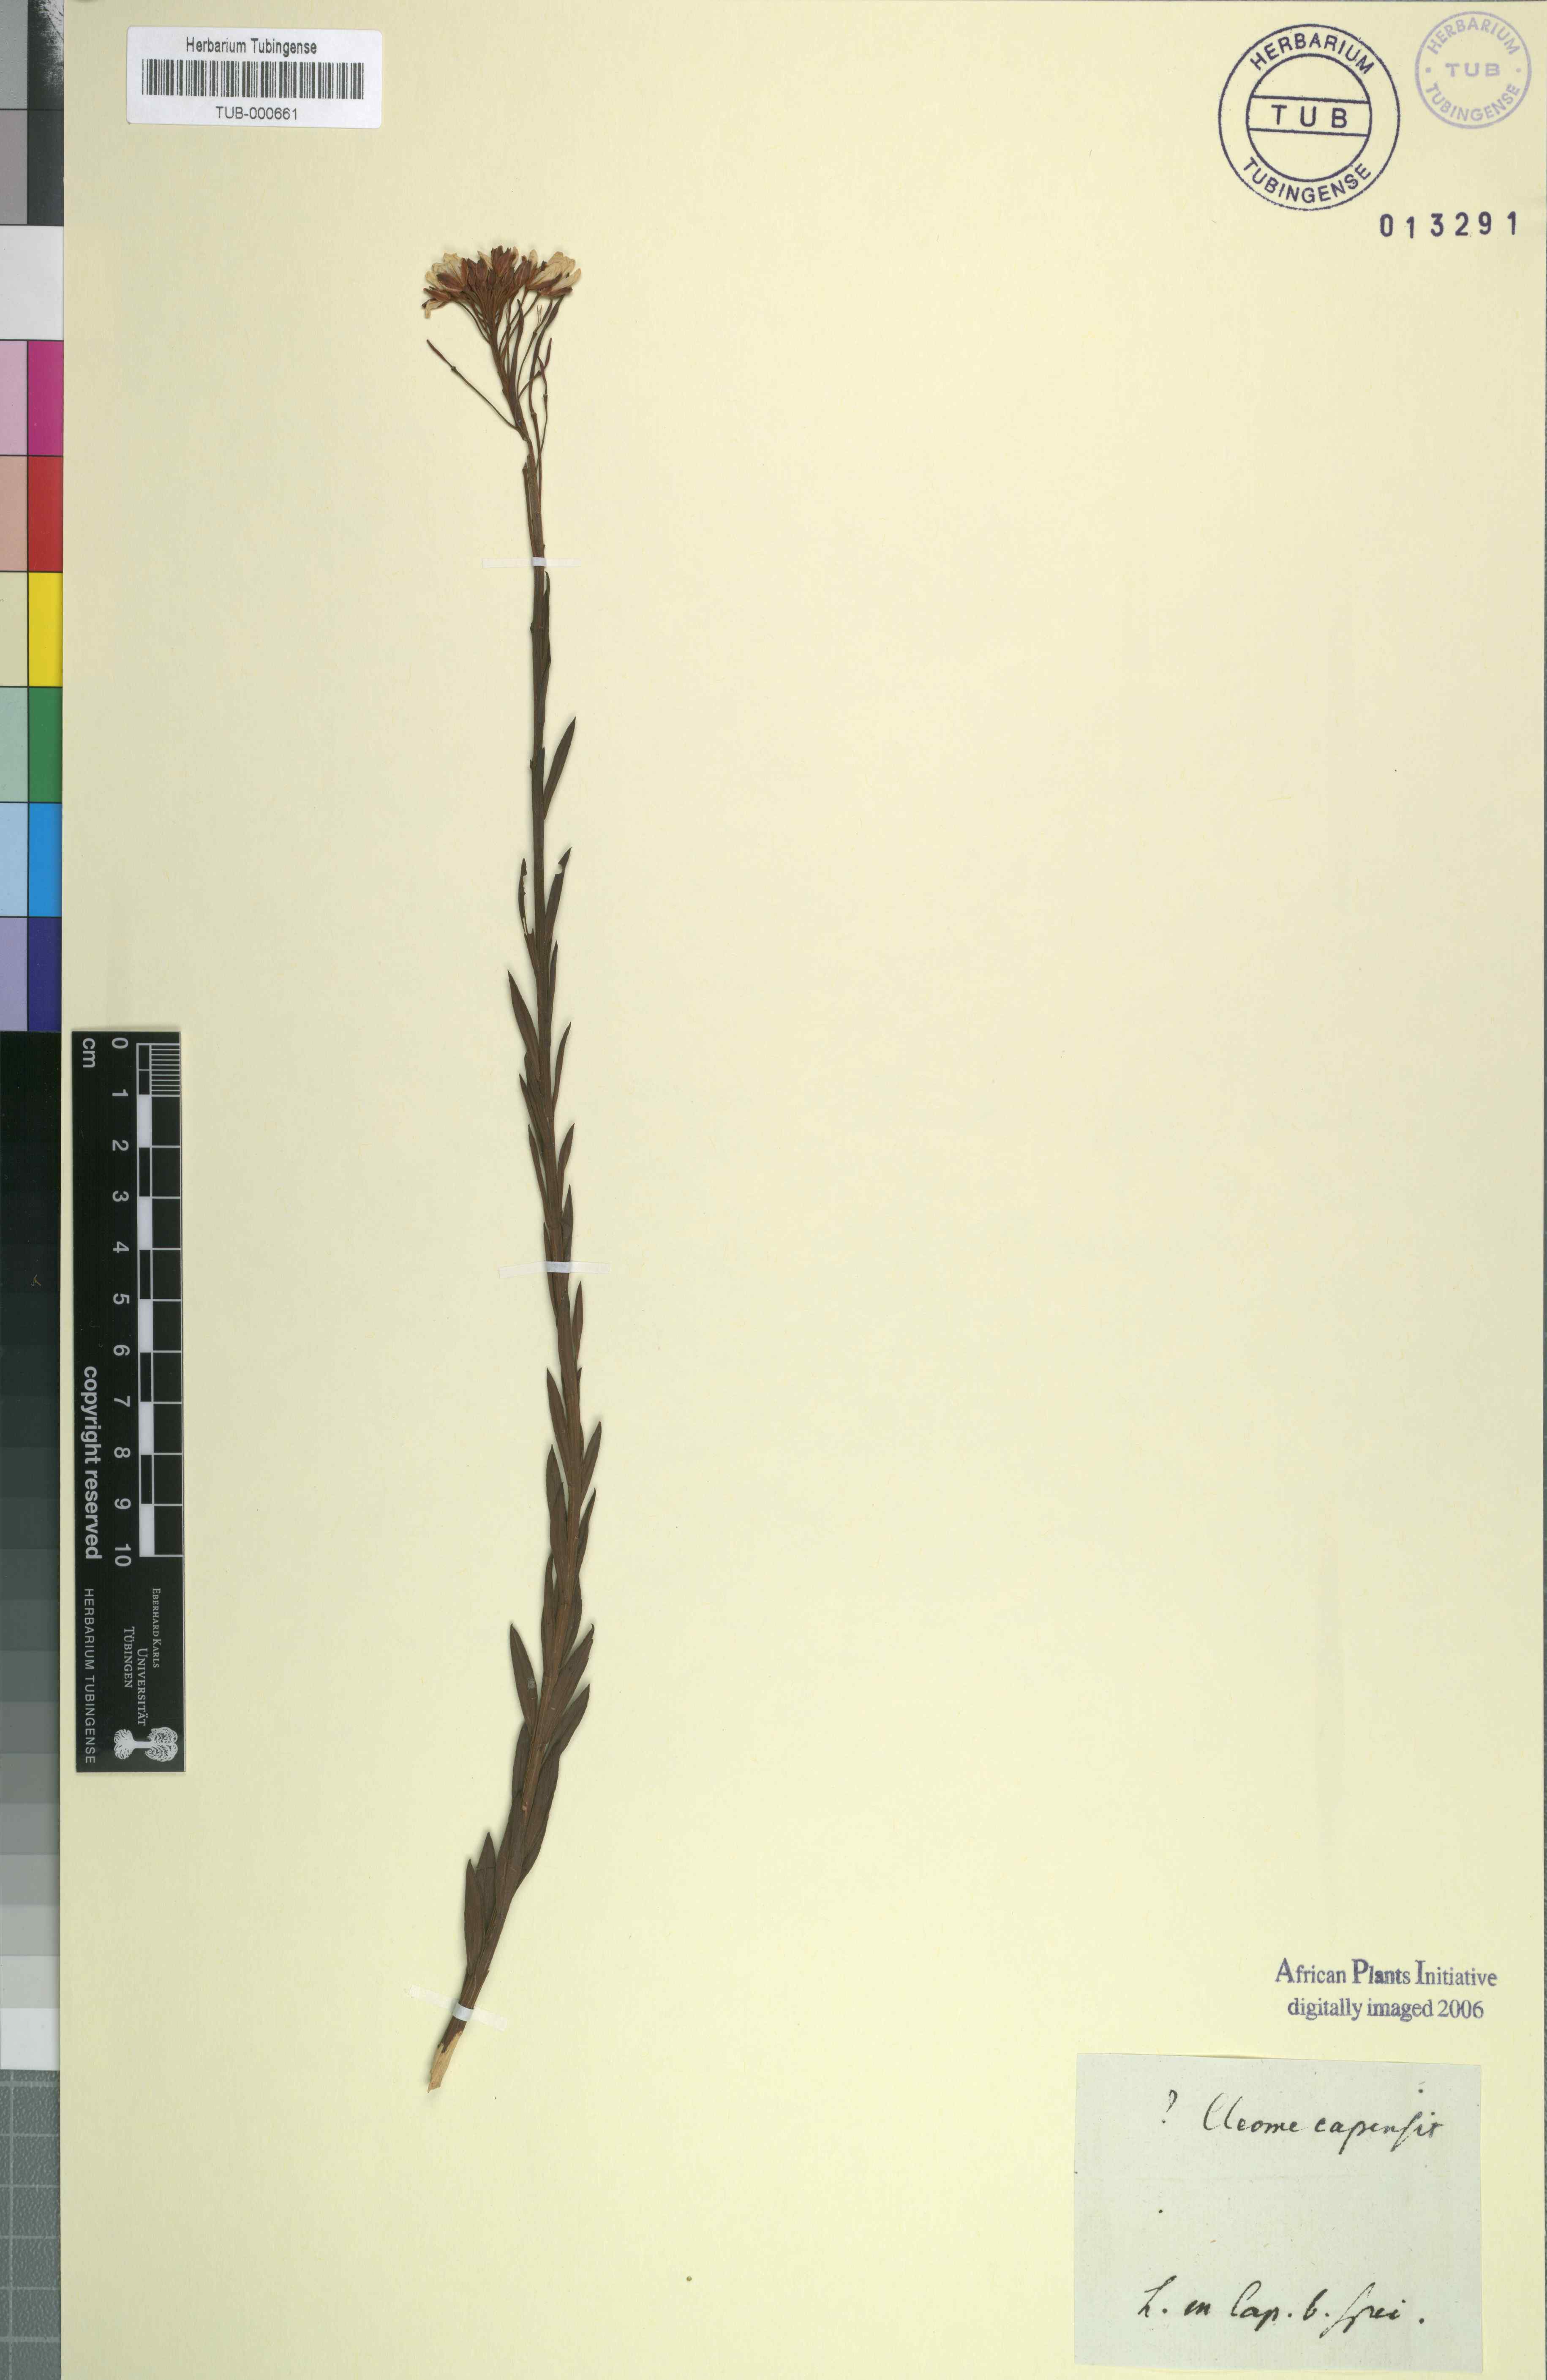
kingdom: Plantae
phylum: Tracheophyta
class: Magnoliopsida
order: Brassicales
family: Brassicaceae
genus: Heliophila
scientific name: Heliophila juncea
